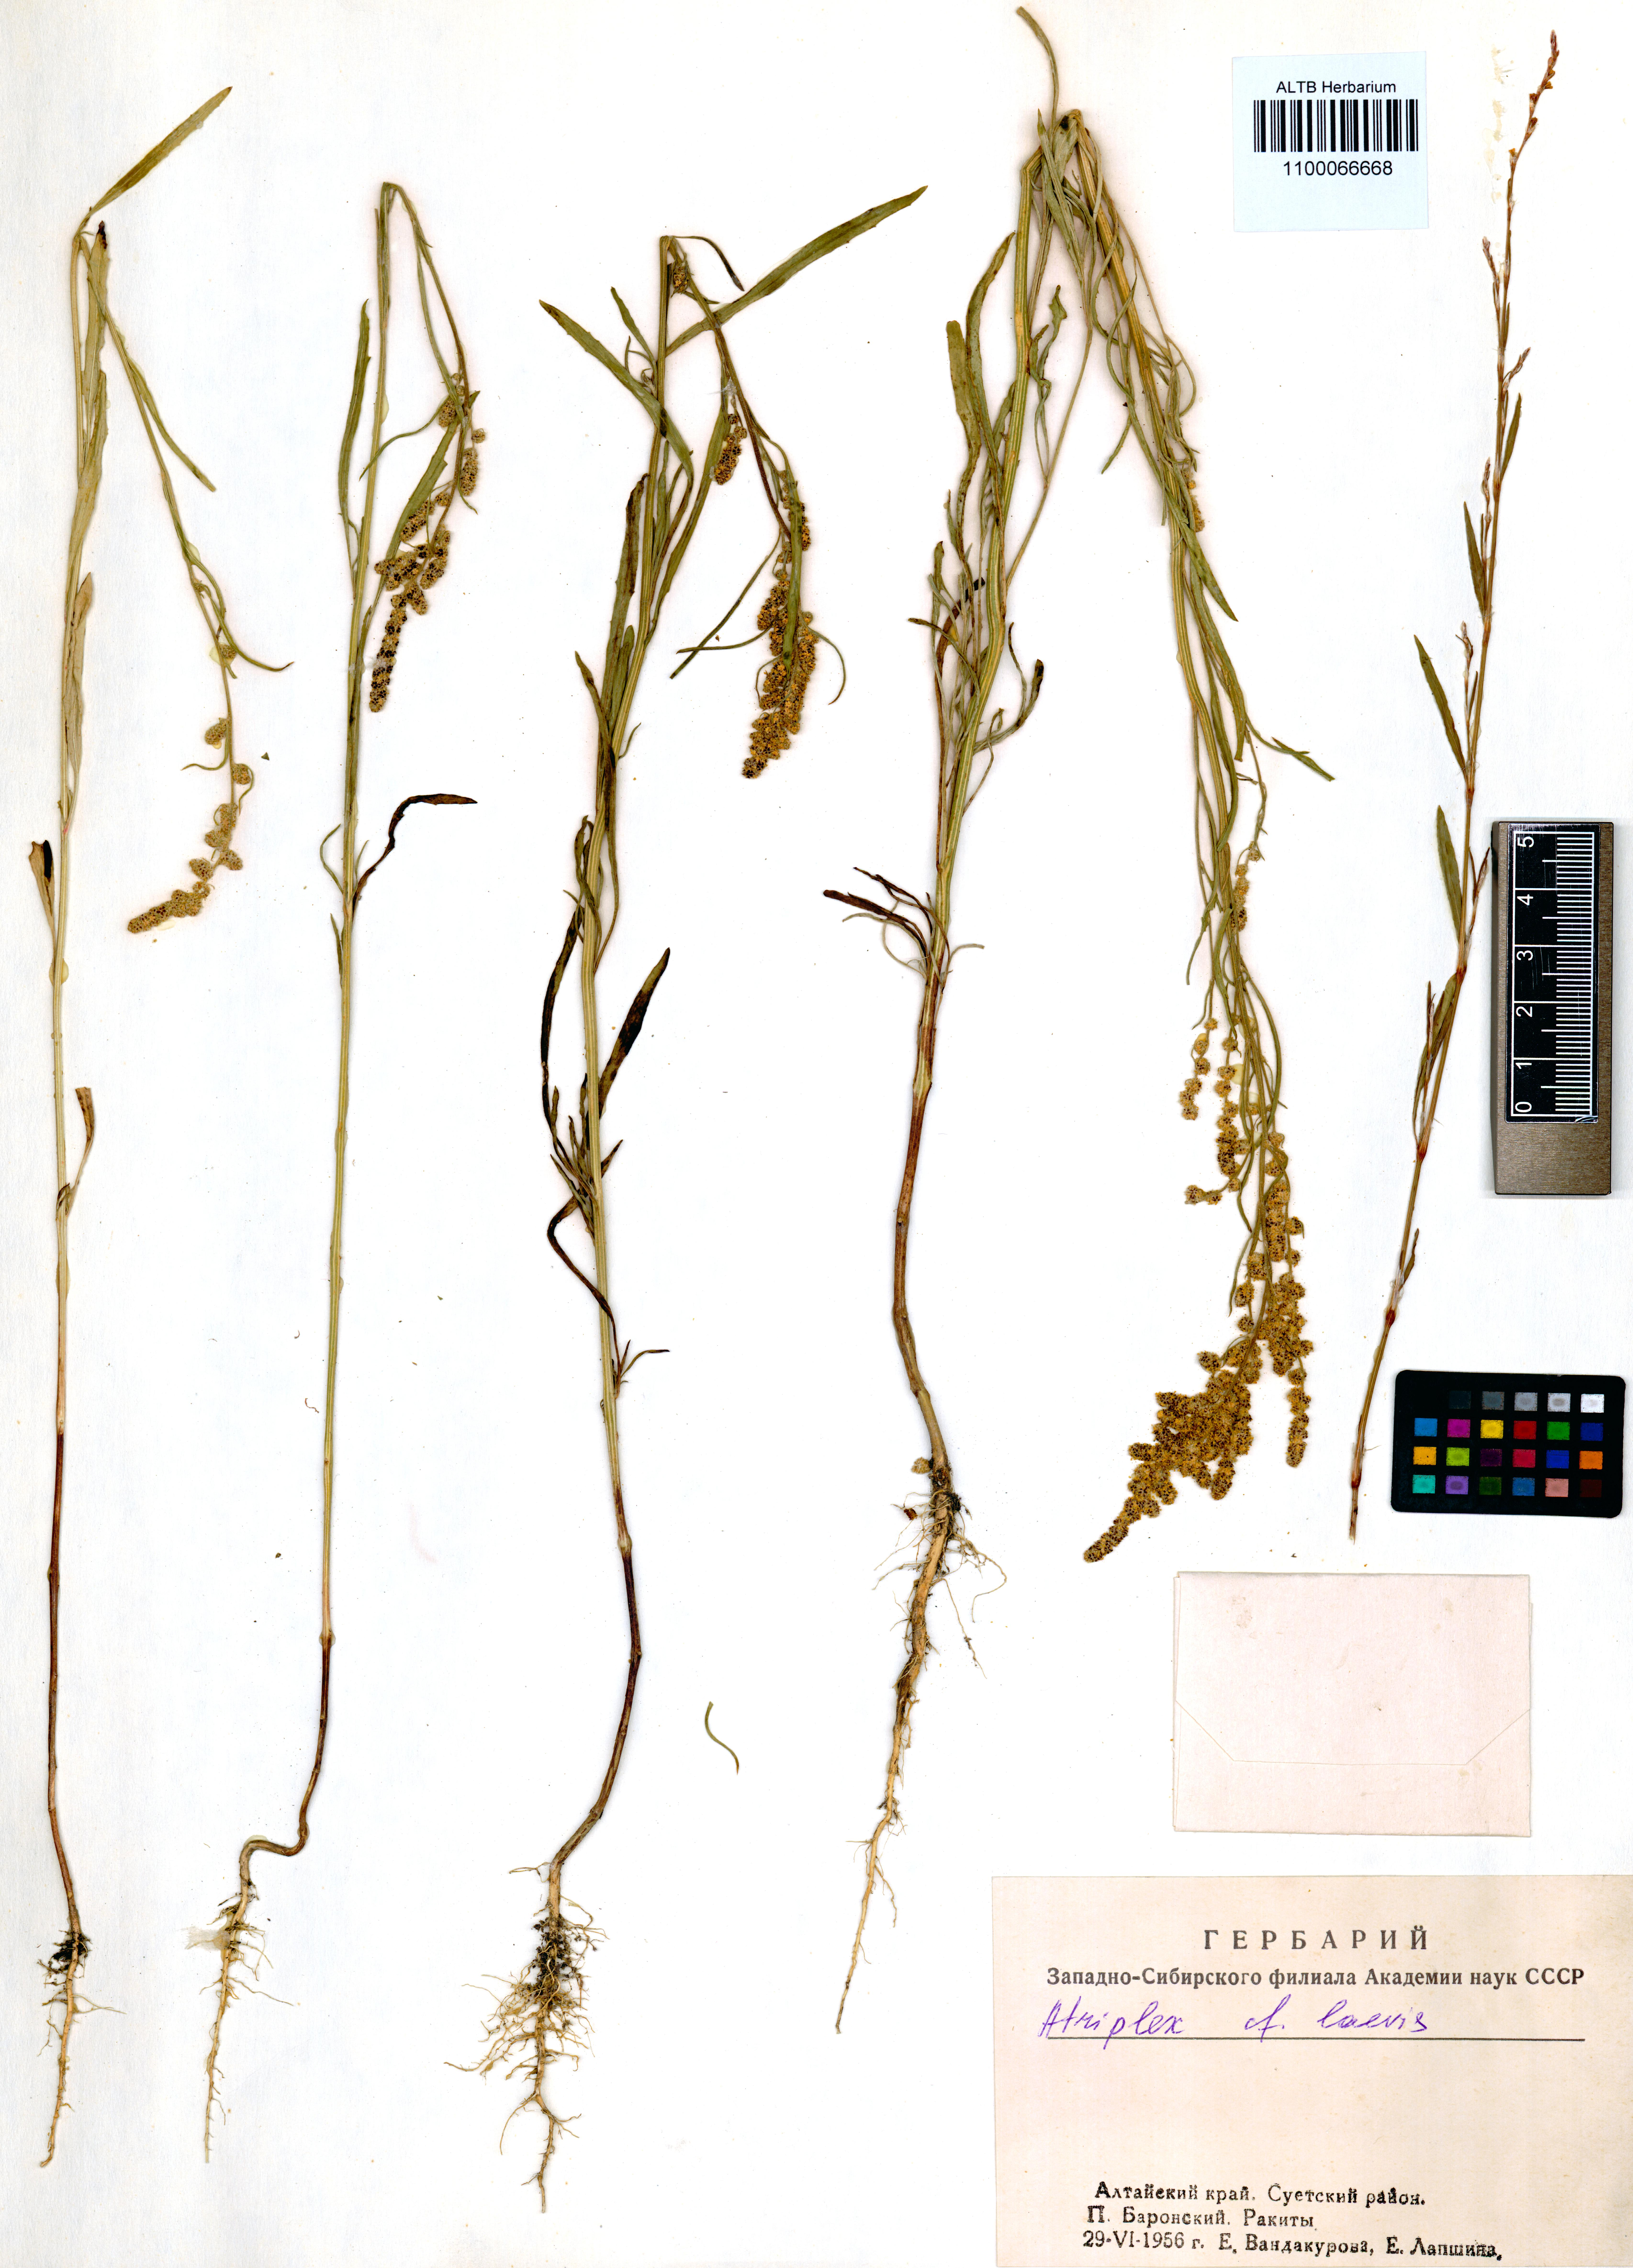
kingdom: Plantae
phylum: Tracheophyta
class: Magnoliopsida
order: Caryophyllales
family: Amaranthaceae
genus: Atriplex
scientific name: Atriplex laevis
